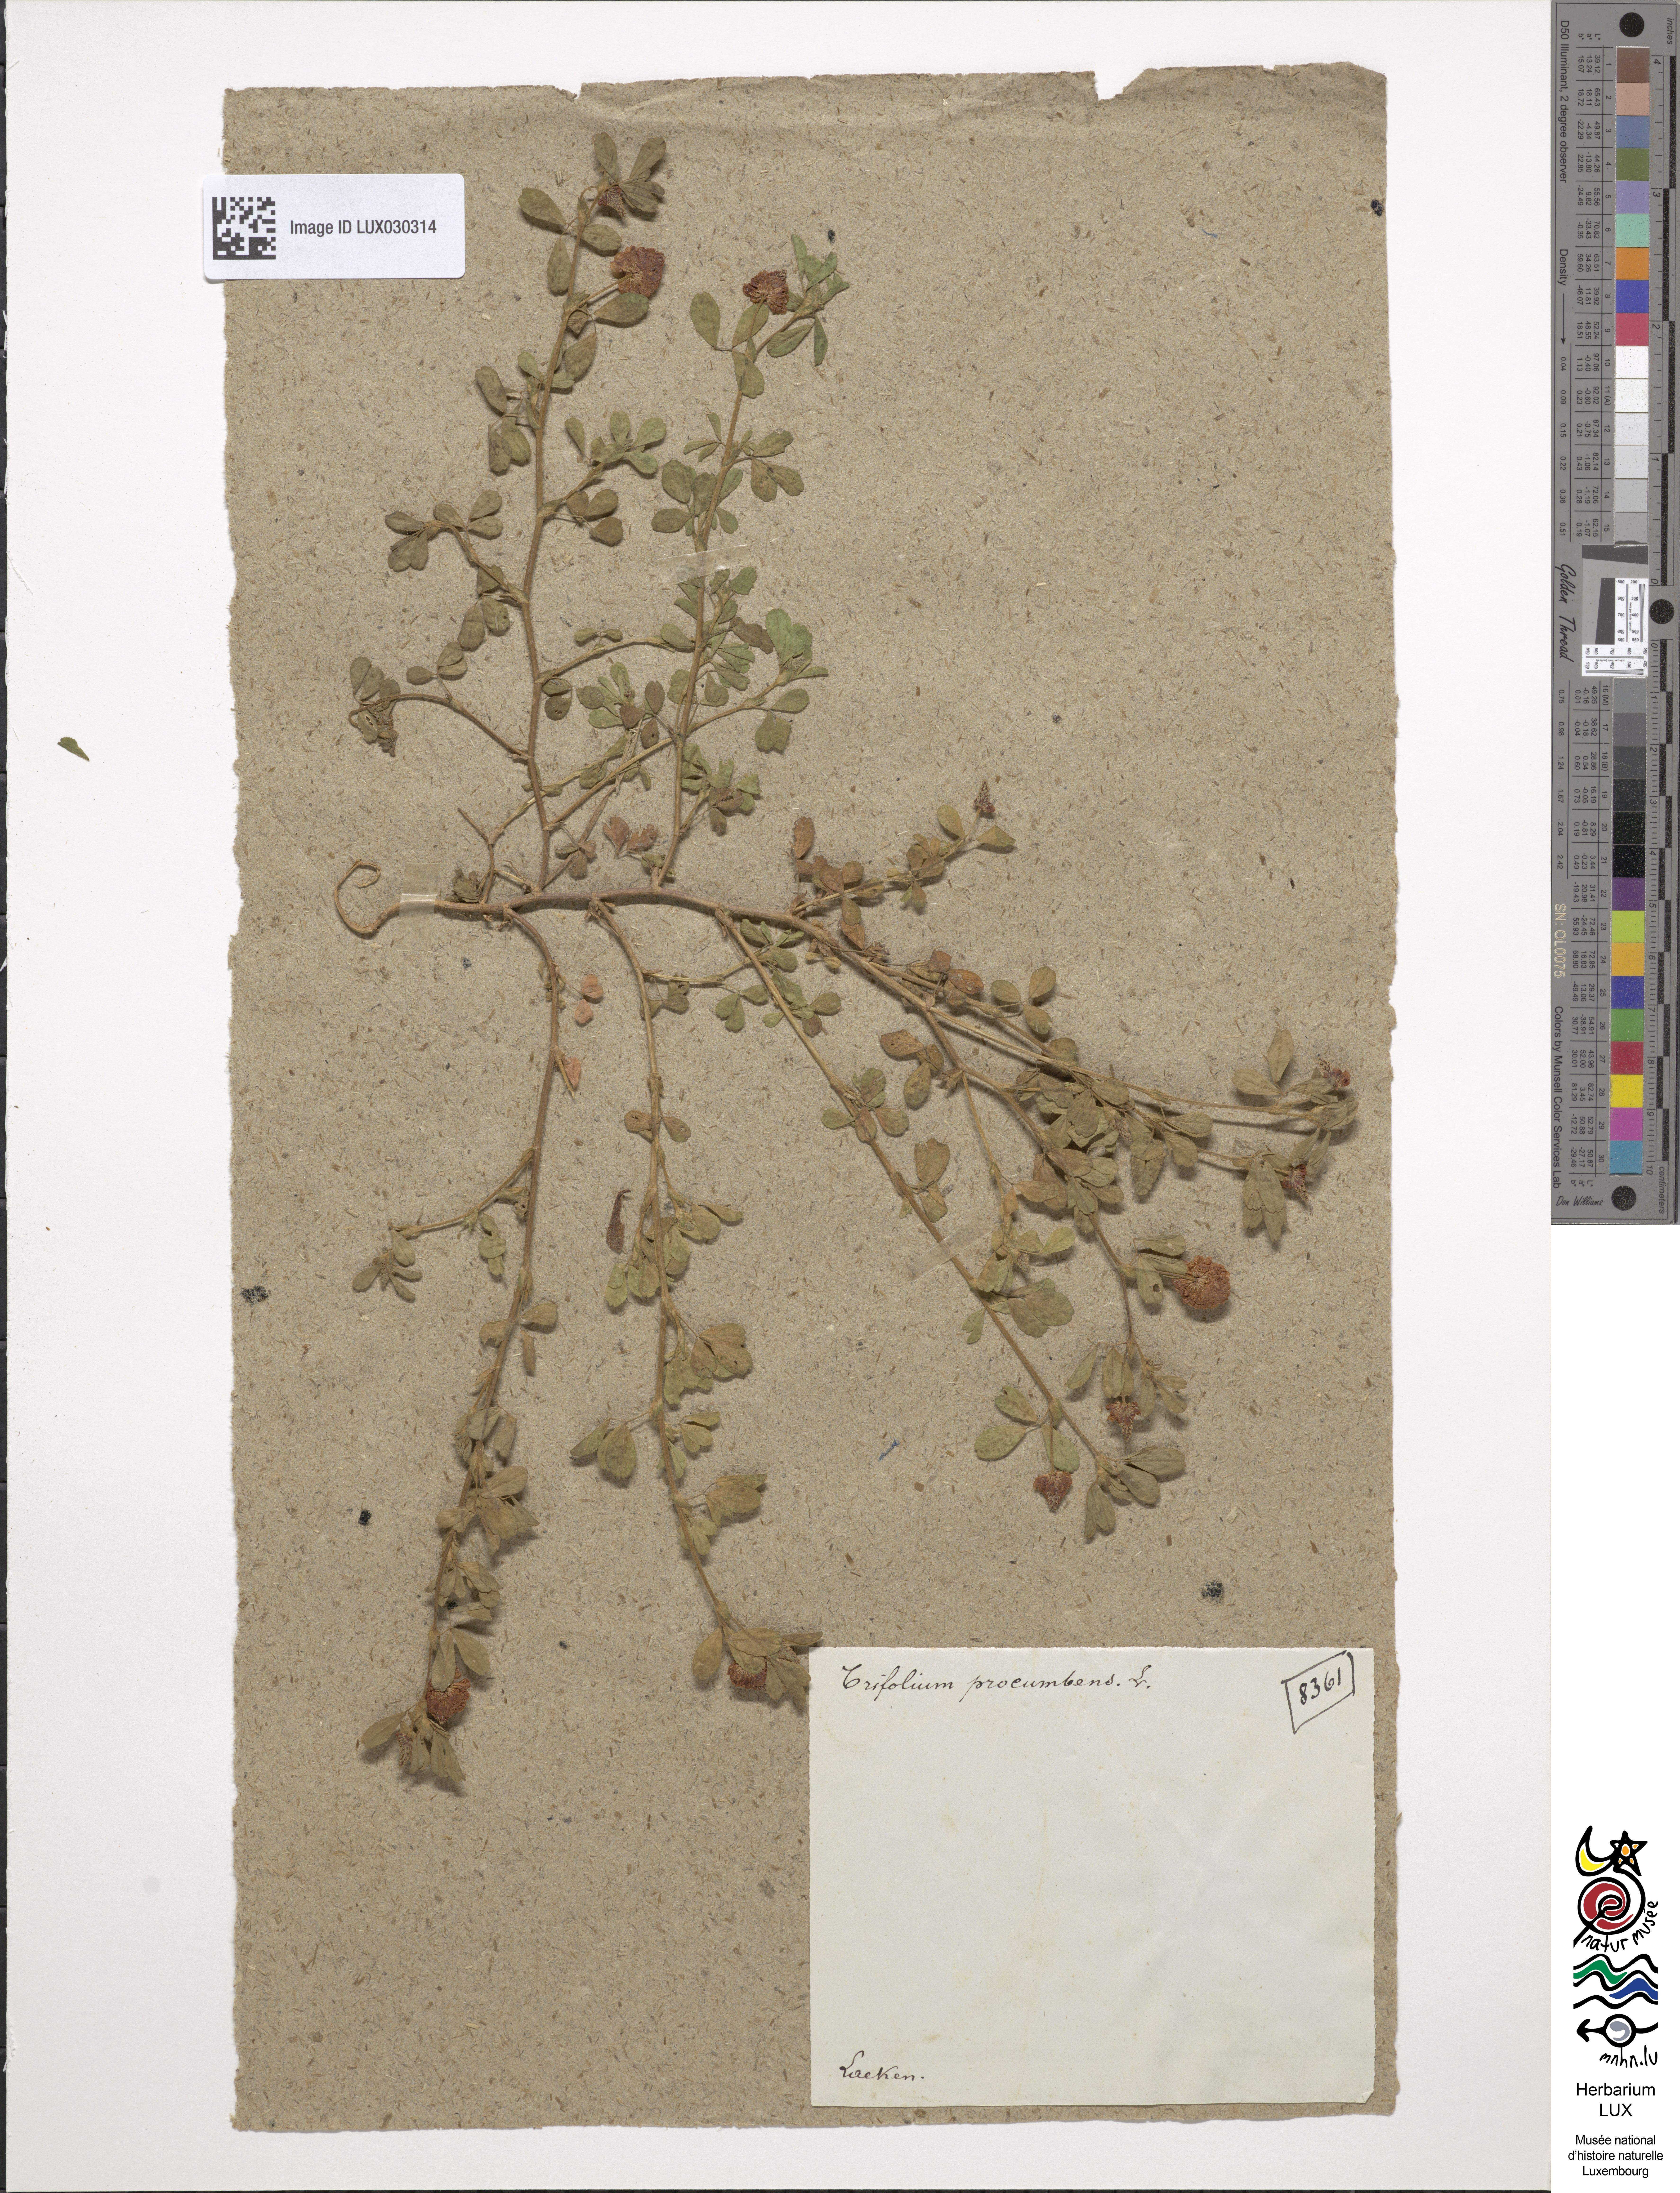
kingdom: Plantae
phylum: Tracheophyta
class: Magnoliopsida
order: Fabales
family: Fabaceae
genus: Trifolium
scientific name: Trifolium campestre
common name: Field clover
